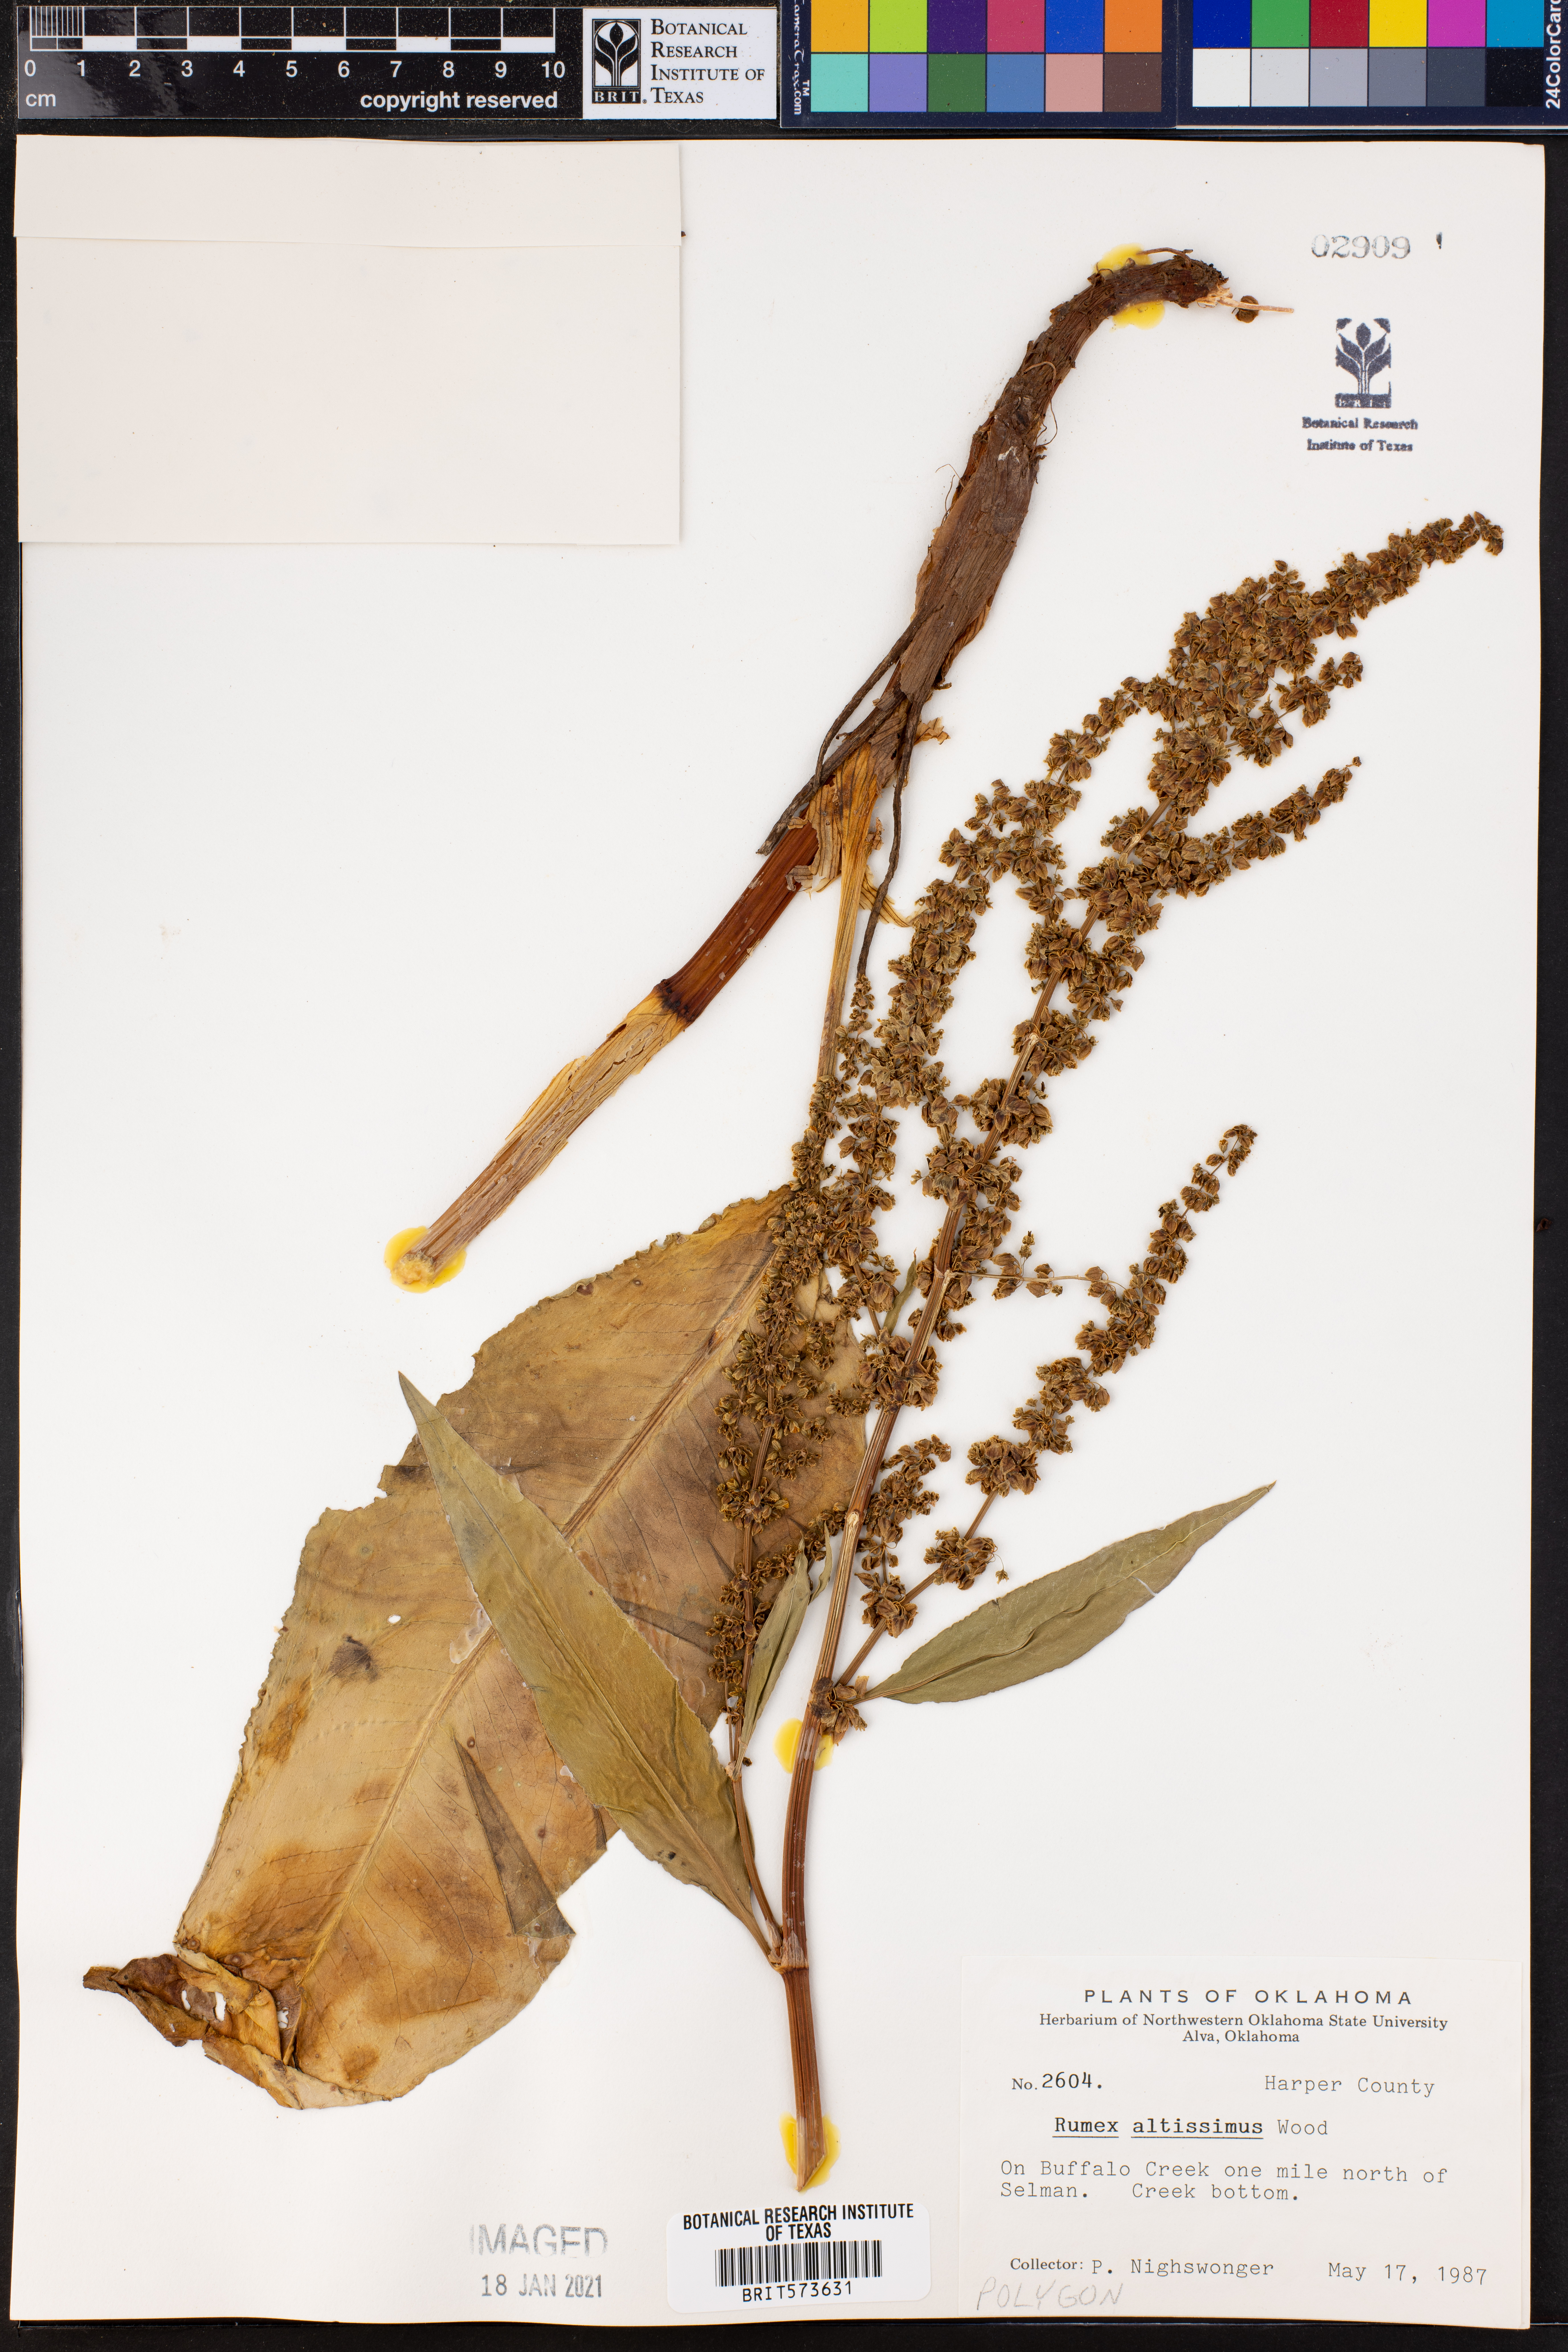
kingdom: Plantae
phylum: Tracheophyta
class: Magnoliopsida
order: Caryophyllales
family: Polygonaceae
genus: Rumex
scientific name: Rumex altissimus
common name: Smooth dock
